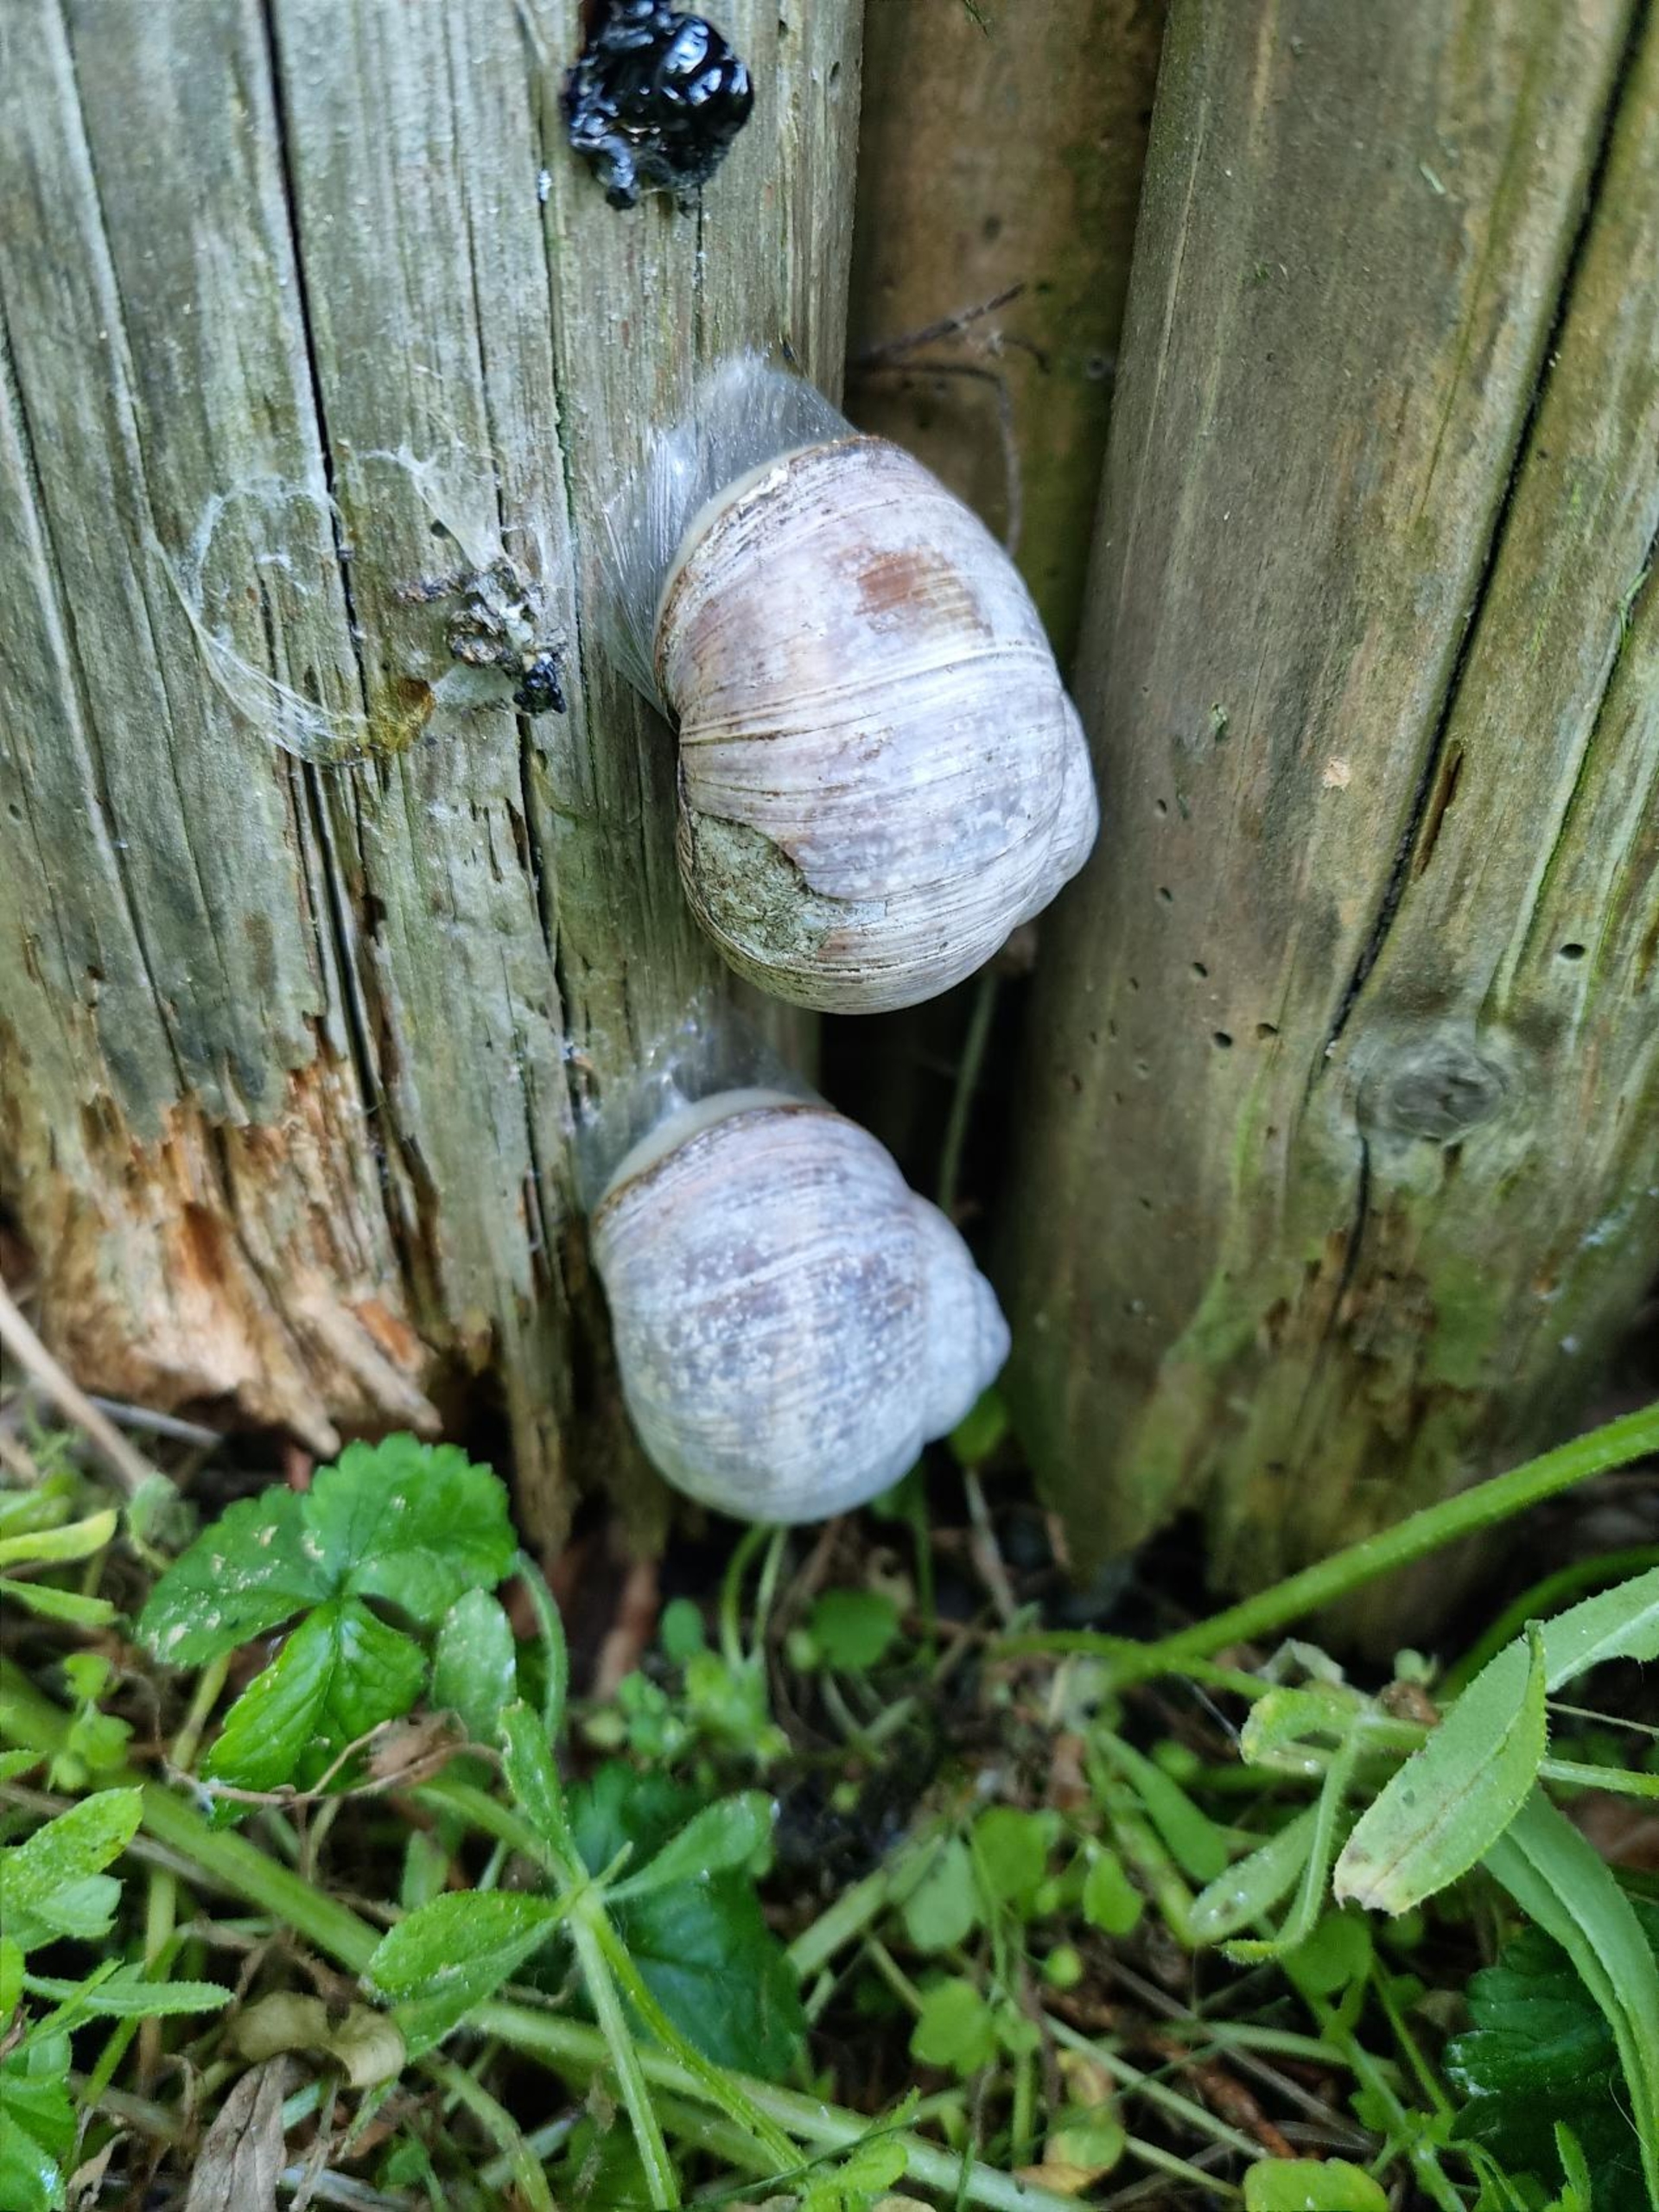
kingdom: Animalia
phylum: Mollusca
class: Gastropoda
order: Stylommatophora
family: Helicidae
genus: Helix
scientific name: Helix pomatia
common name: Vinbjergsnegl
